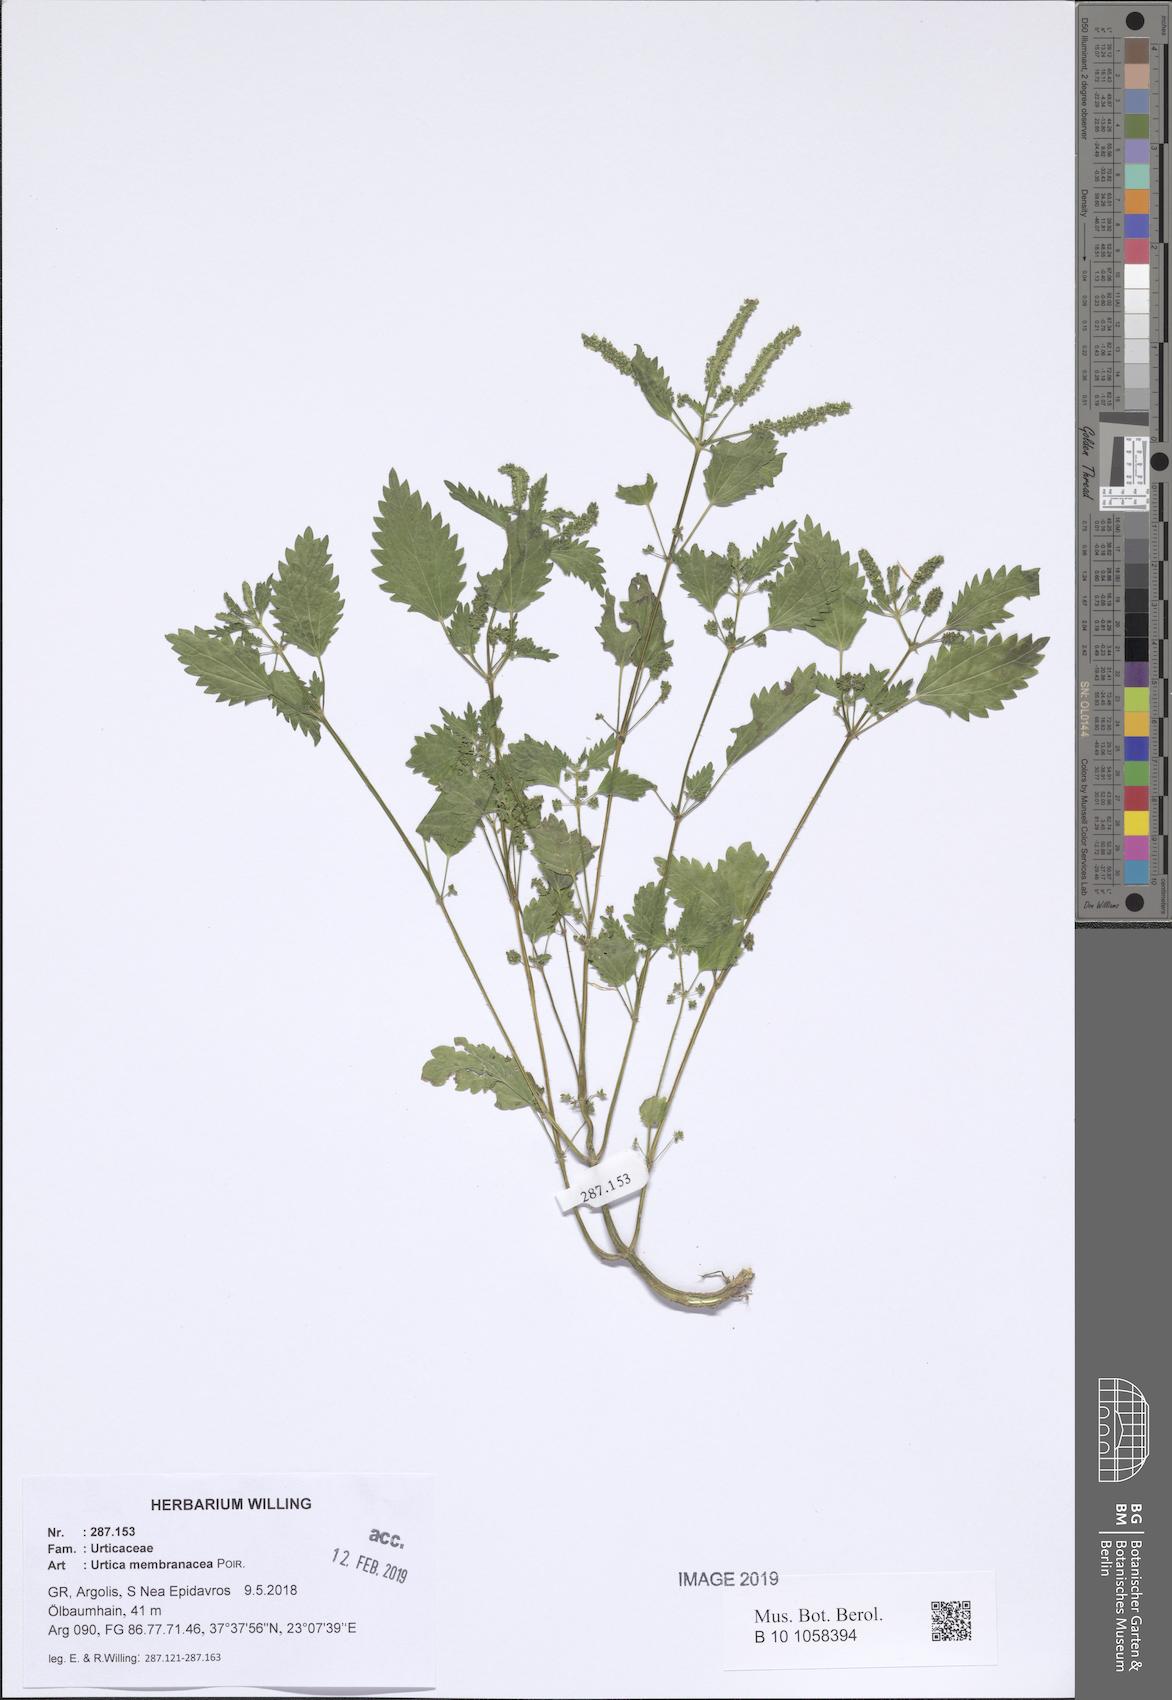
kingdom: Plantae
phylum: Tracheophyta
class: Magnoliopsida
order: Rosales
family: Urticaceae
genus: Urtica
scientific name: Urtica membranacea
